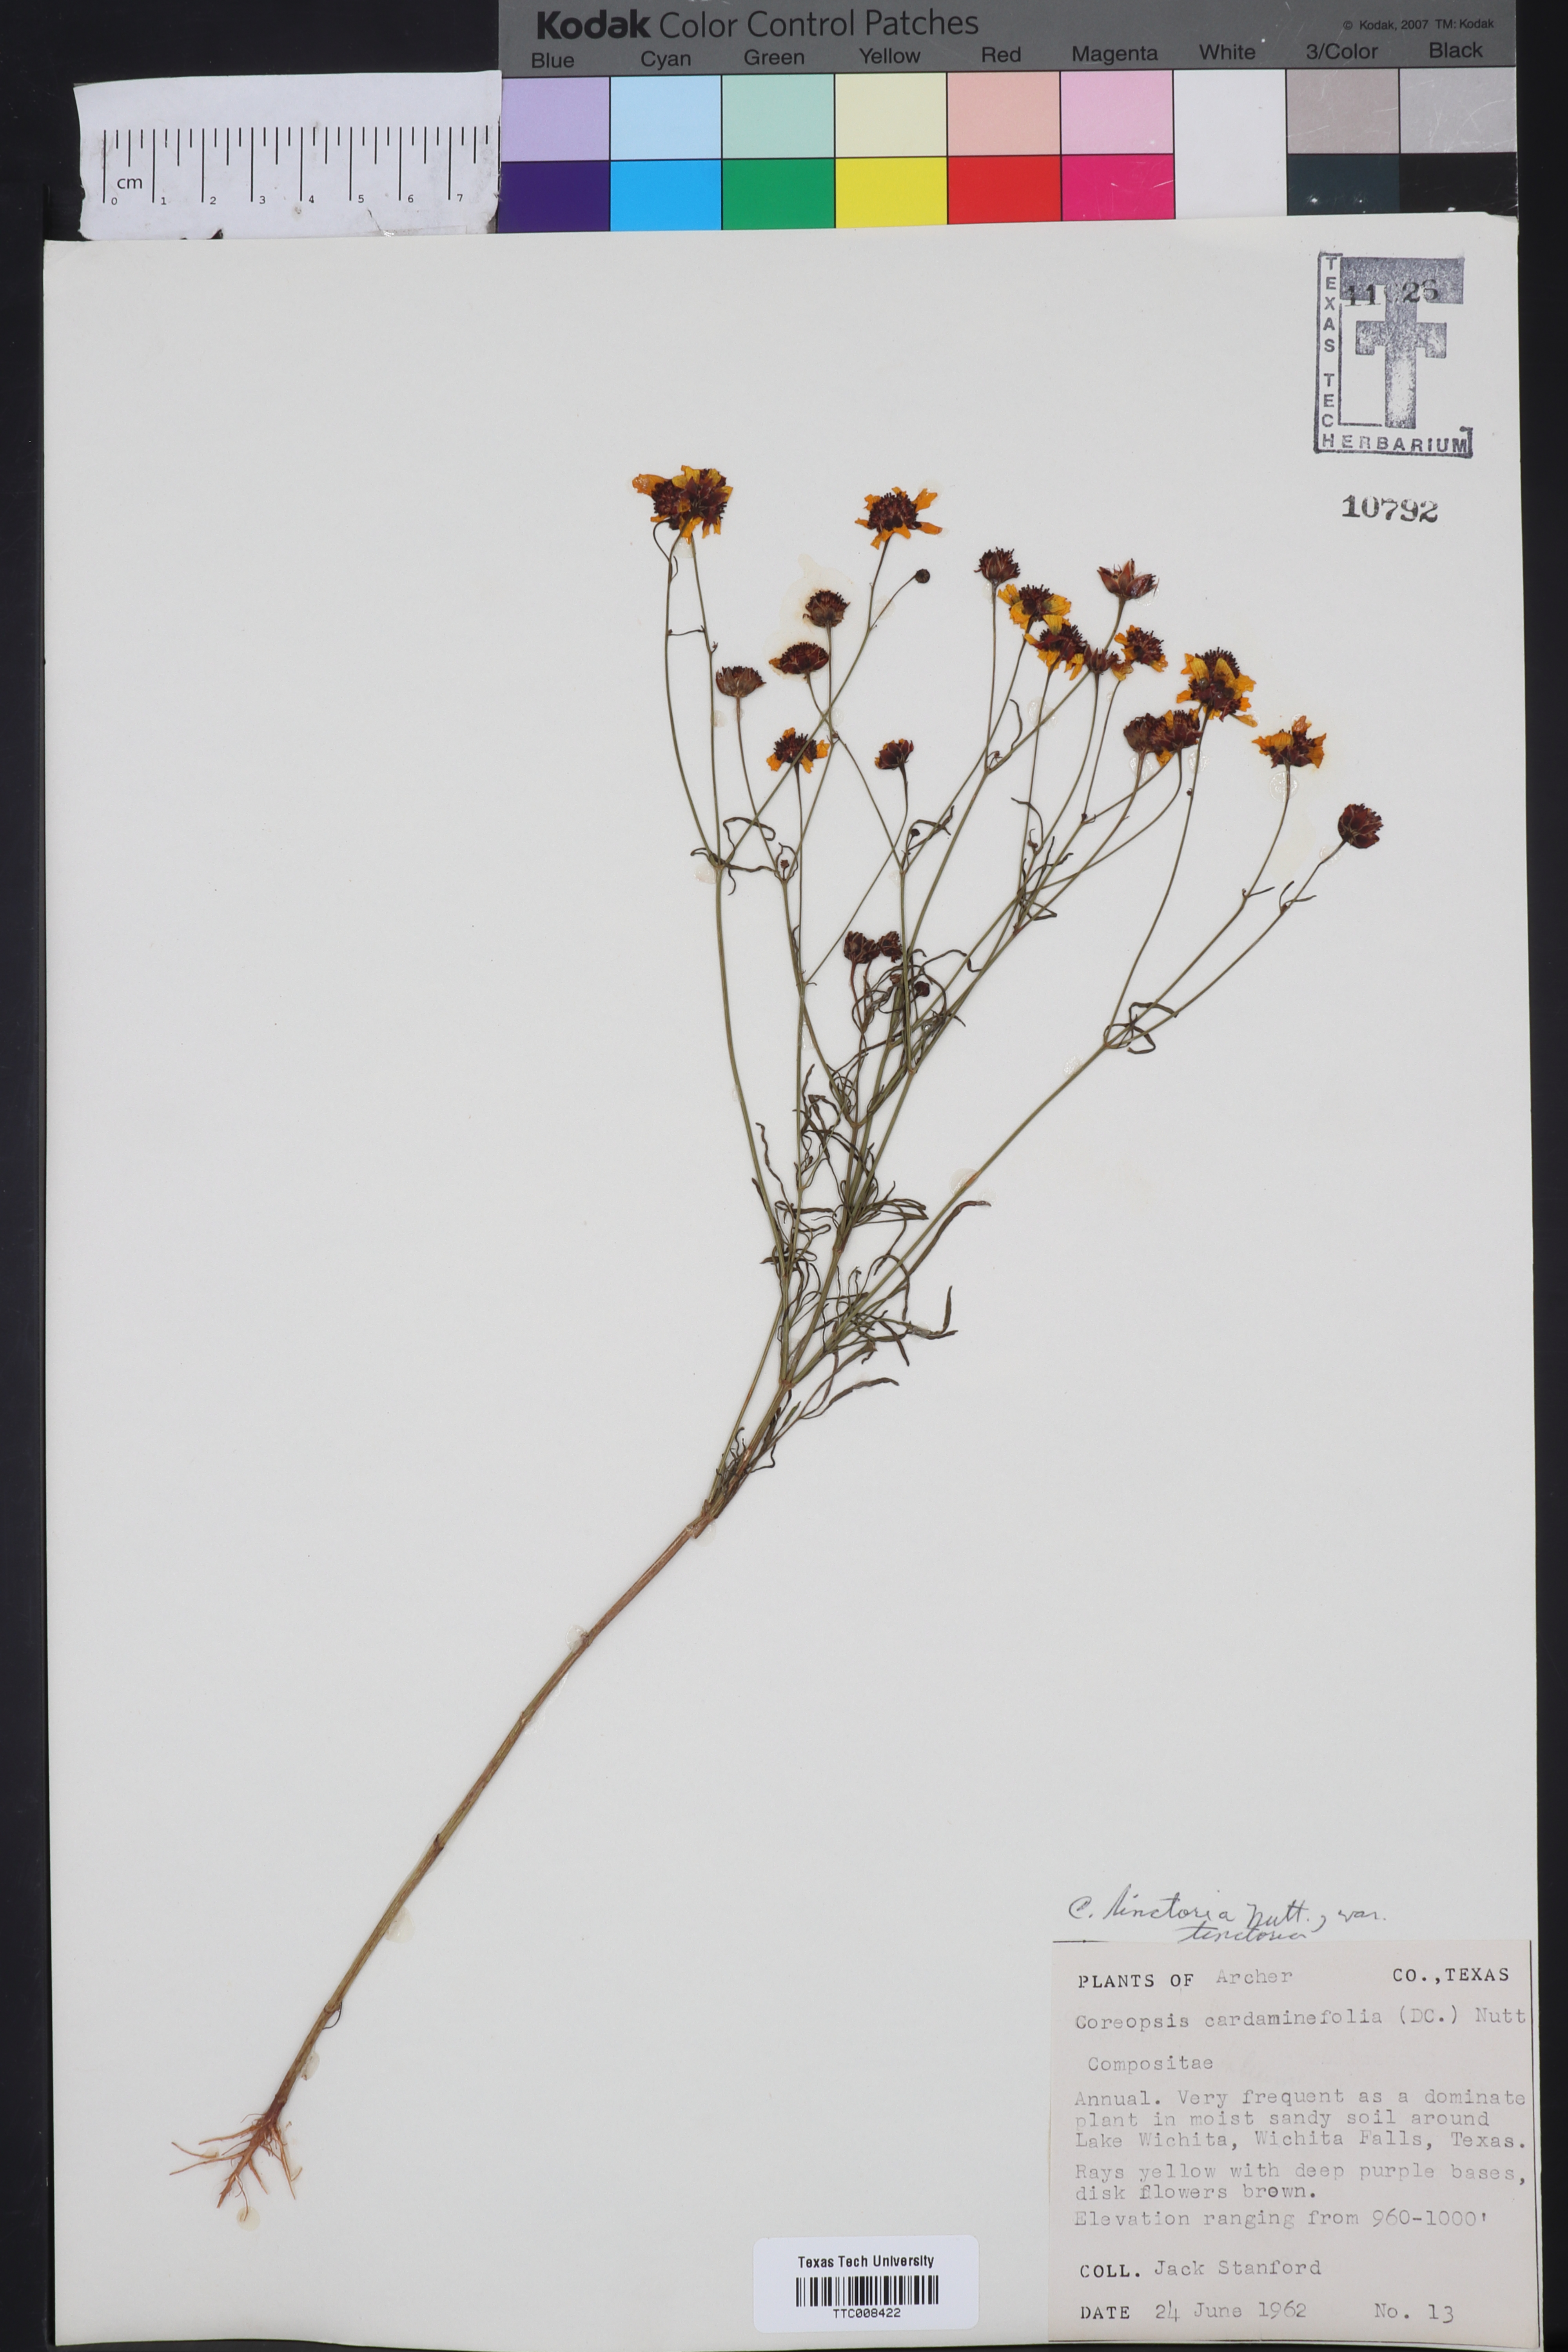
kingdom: Plantae
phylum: Tracheophyta
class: Magnoliopsida
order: Asterales
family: Asteraceae
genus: Coreopsis
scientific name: Coreopsis tinctoria
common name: Garden tickseed
